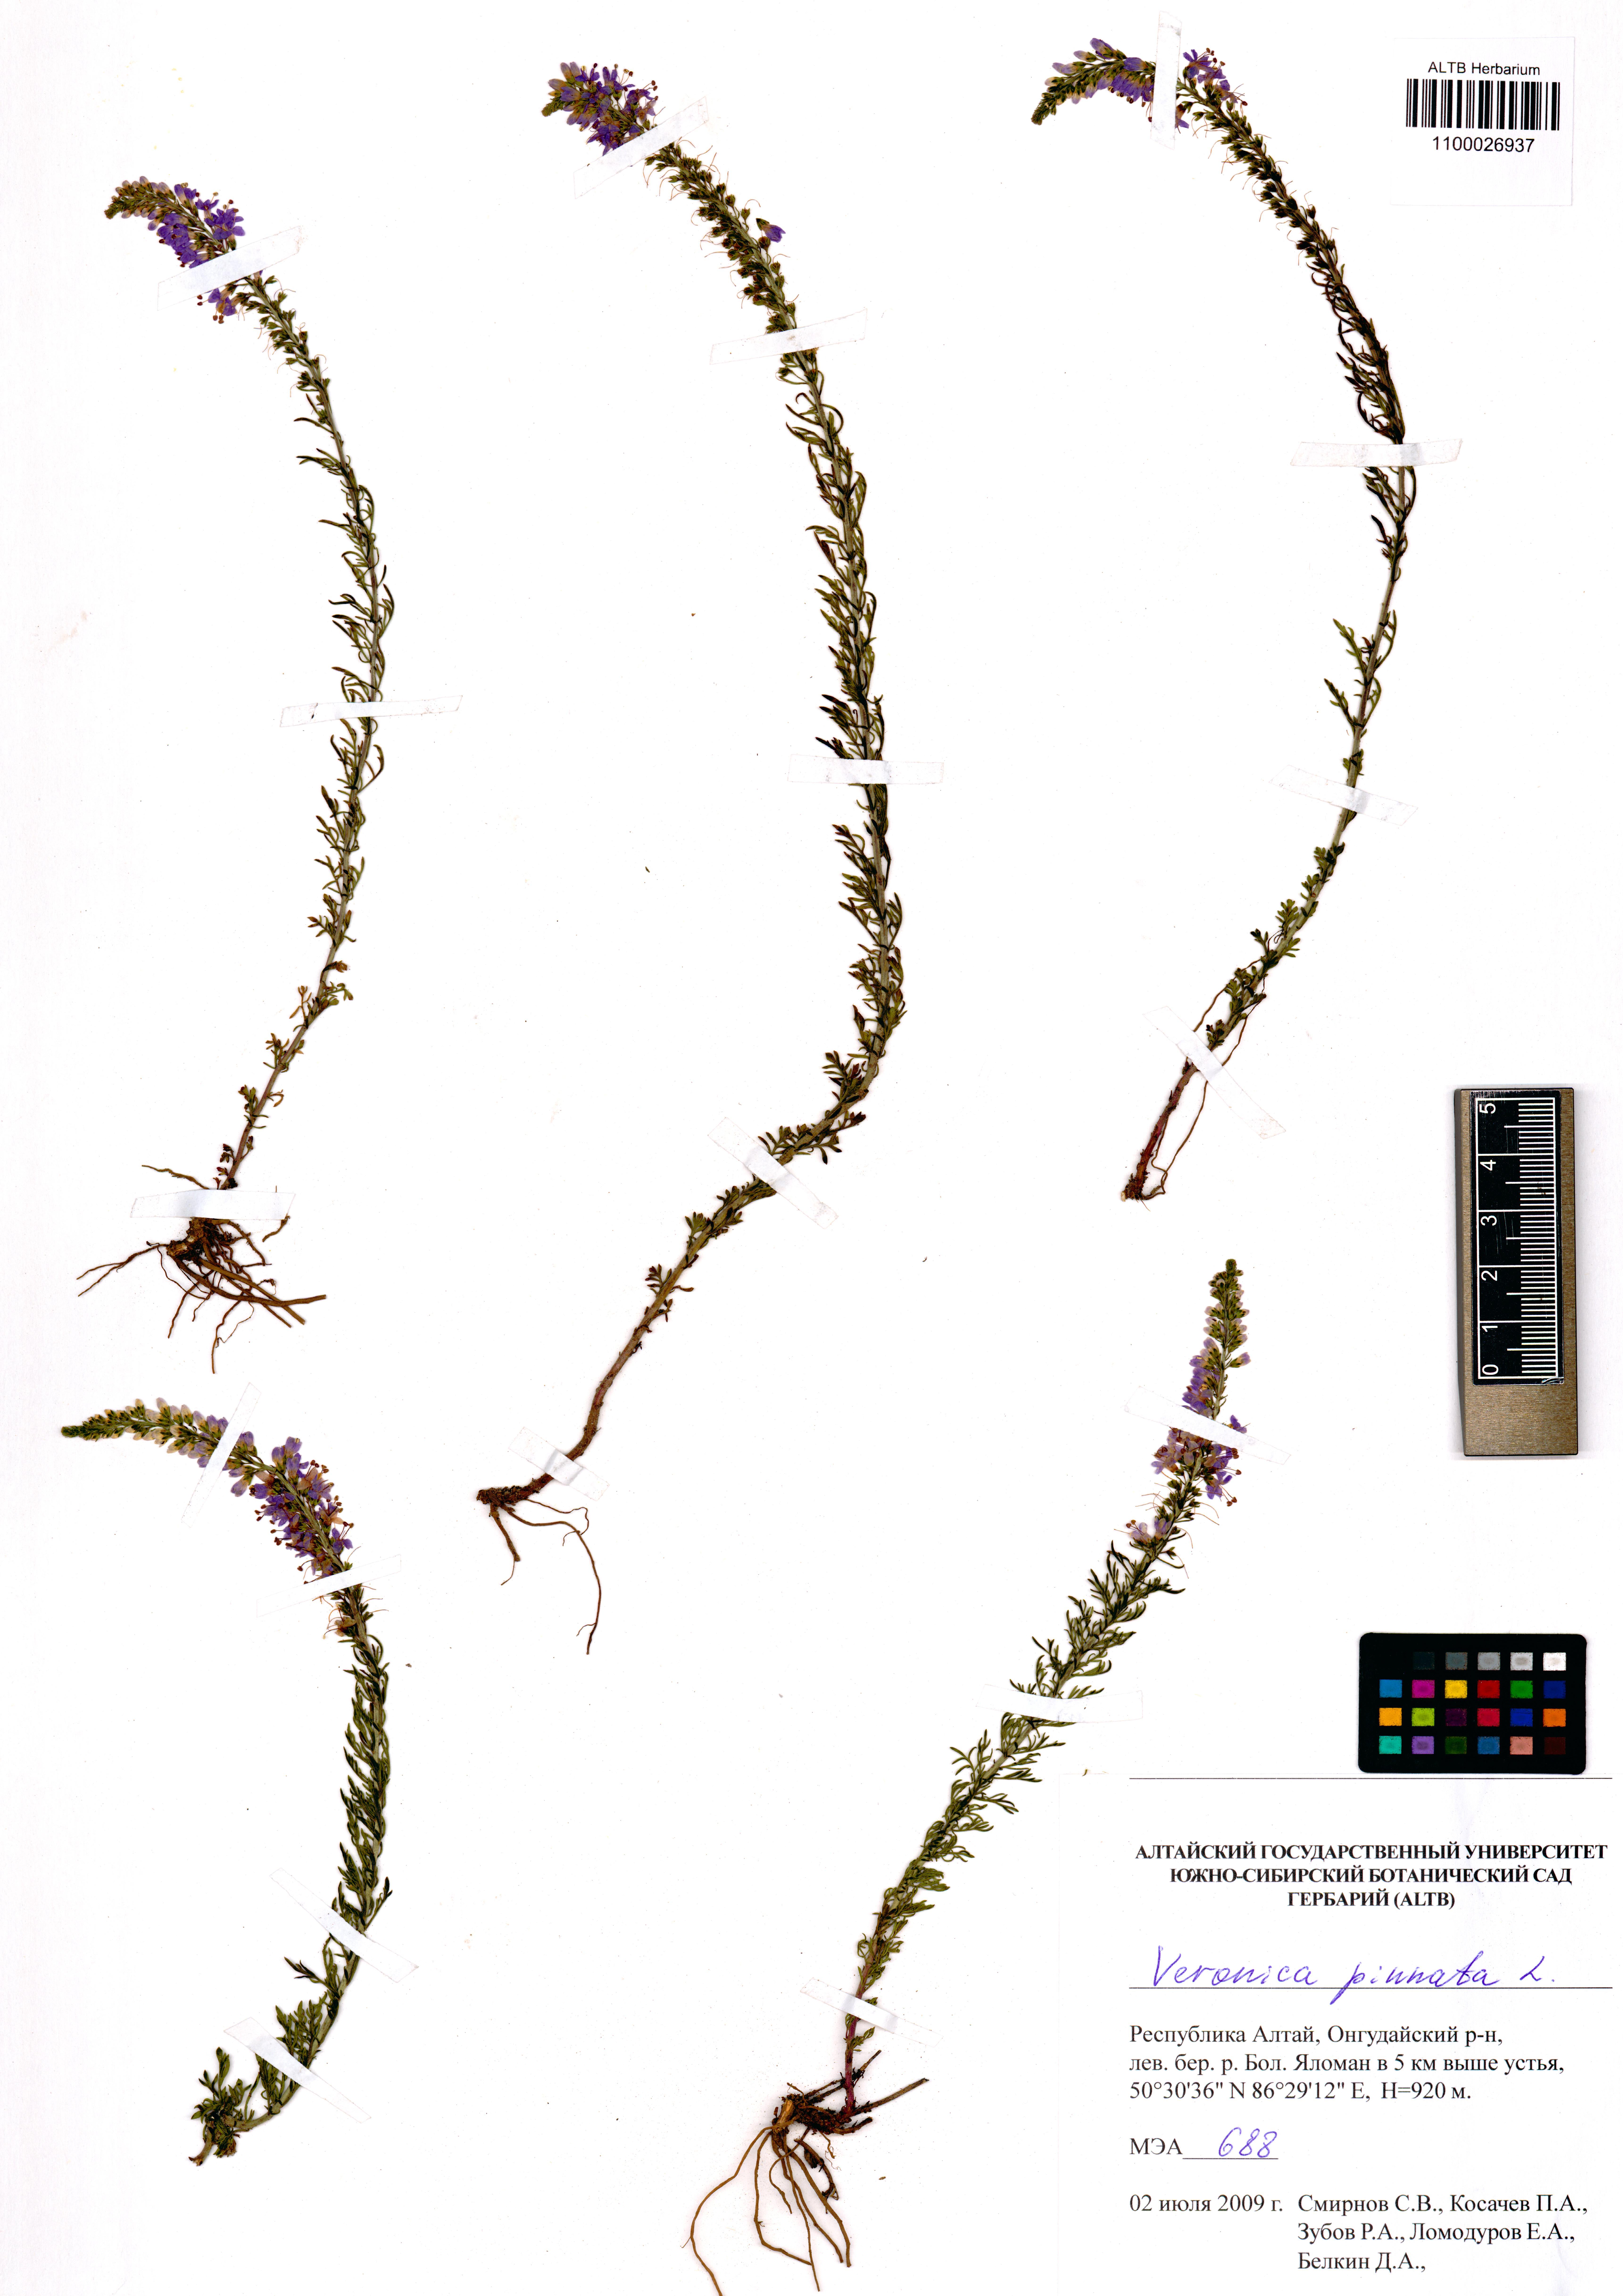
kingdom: Plantae
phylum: Tracheophyta
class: Magnoliopsida
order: Lamiales
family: Plantaginaceae
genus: Veronica
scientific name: Veronica pinnata
